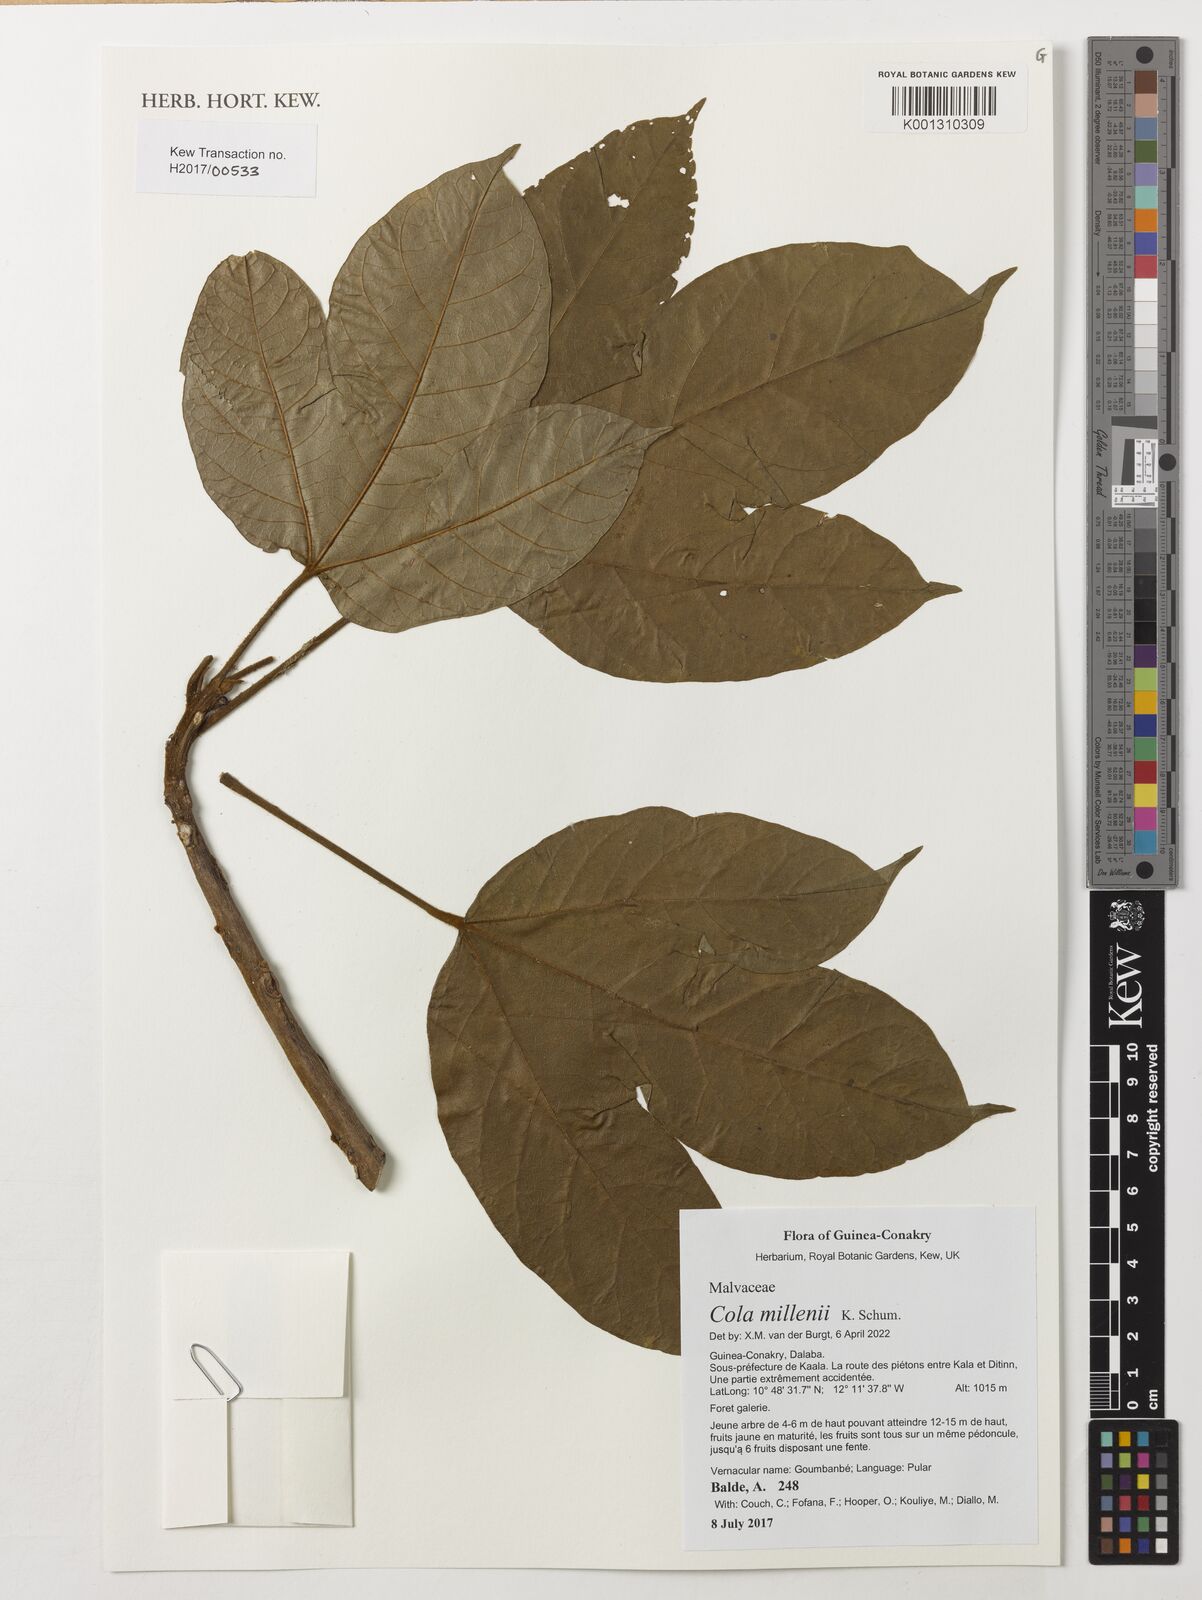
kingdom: Plantae
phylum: Tracheophyta
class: Magnoliopsida
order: Malvales
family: Malvaceae
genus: Cola
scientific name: Cola millenii
